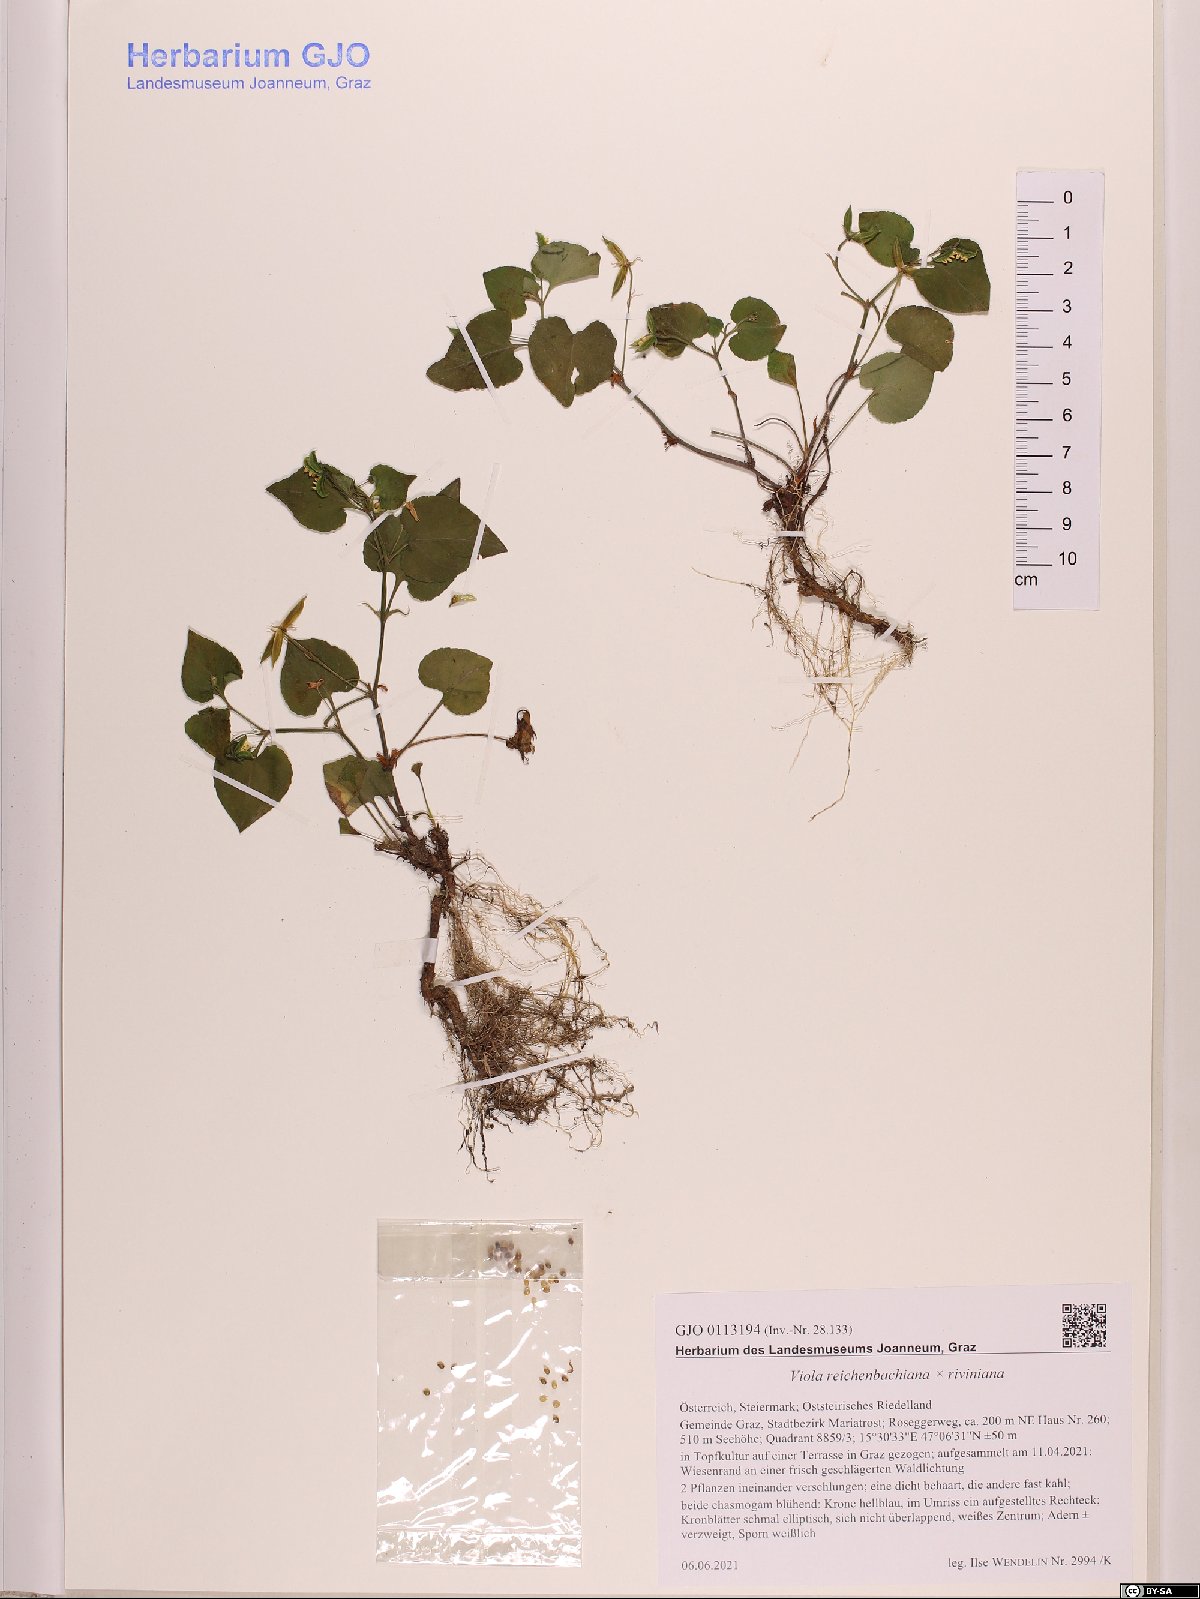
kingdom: Plantae
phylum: Tracheophyta
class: Magnoliopsida
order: Malpighiales
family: Violaceae
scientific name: Violaceae
